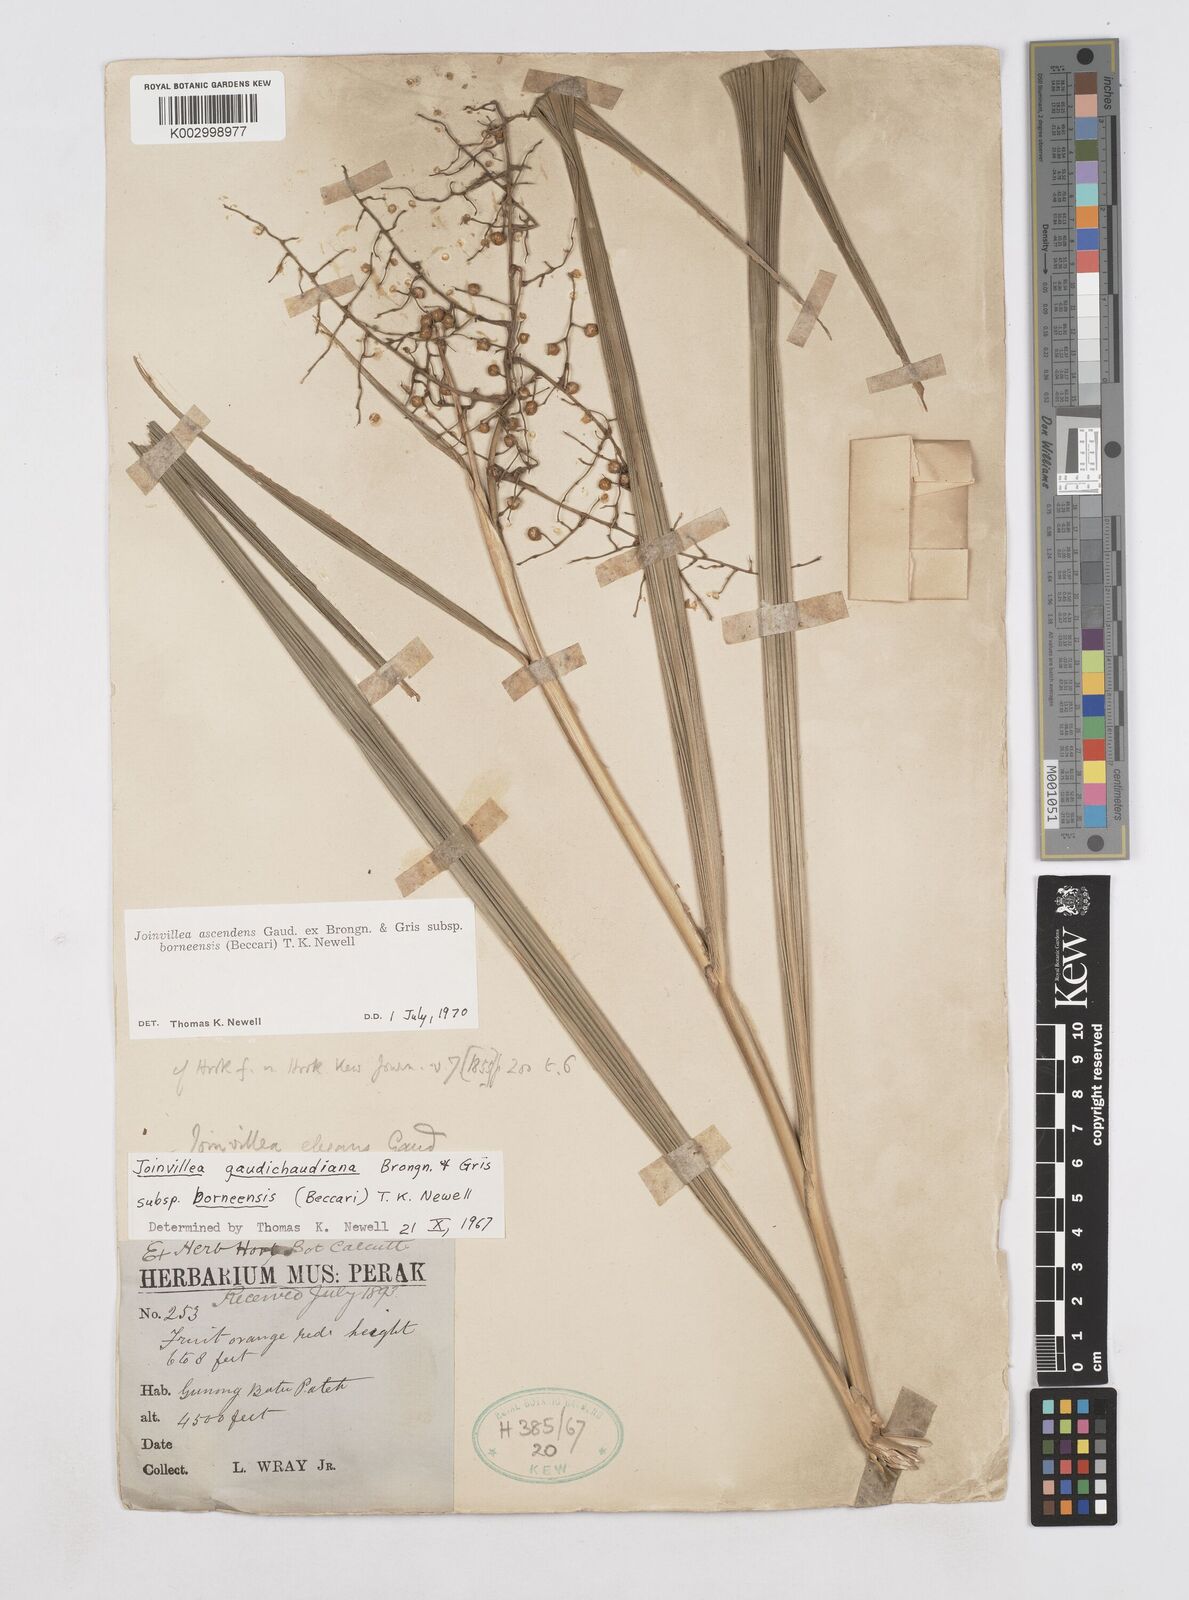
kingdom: Plantae
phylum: Tracheophyta
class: Liliopsida
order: Poales
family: Joinvilleaceae
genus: Joinvillea
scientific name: Joinvillea borneensis
